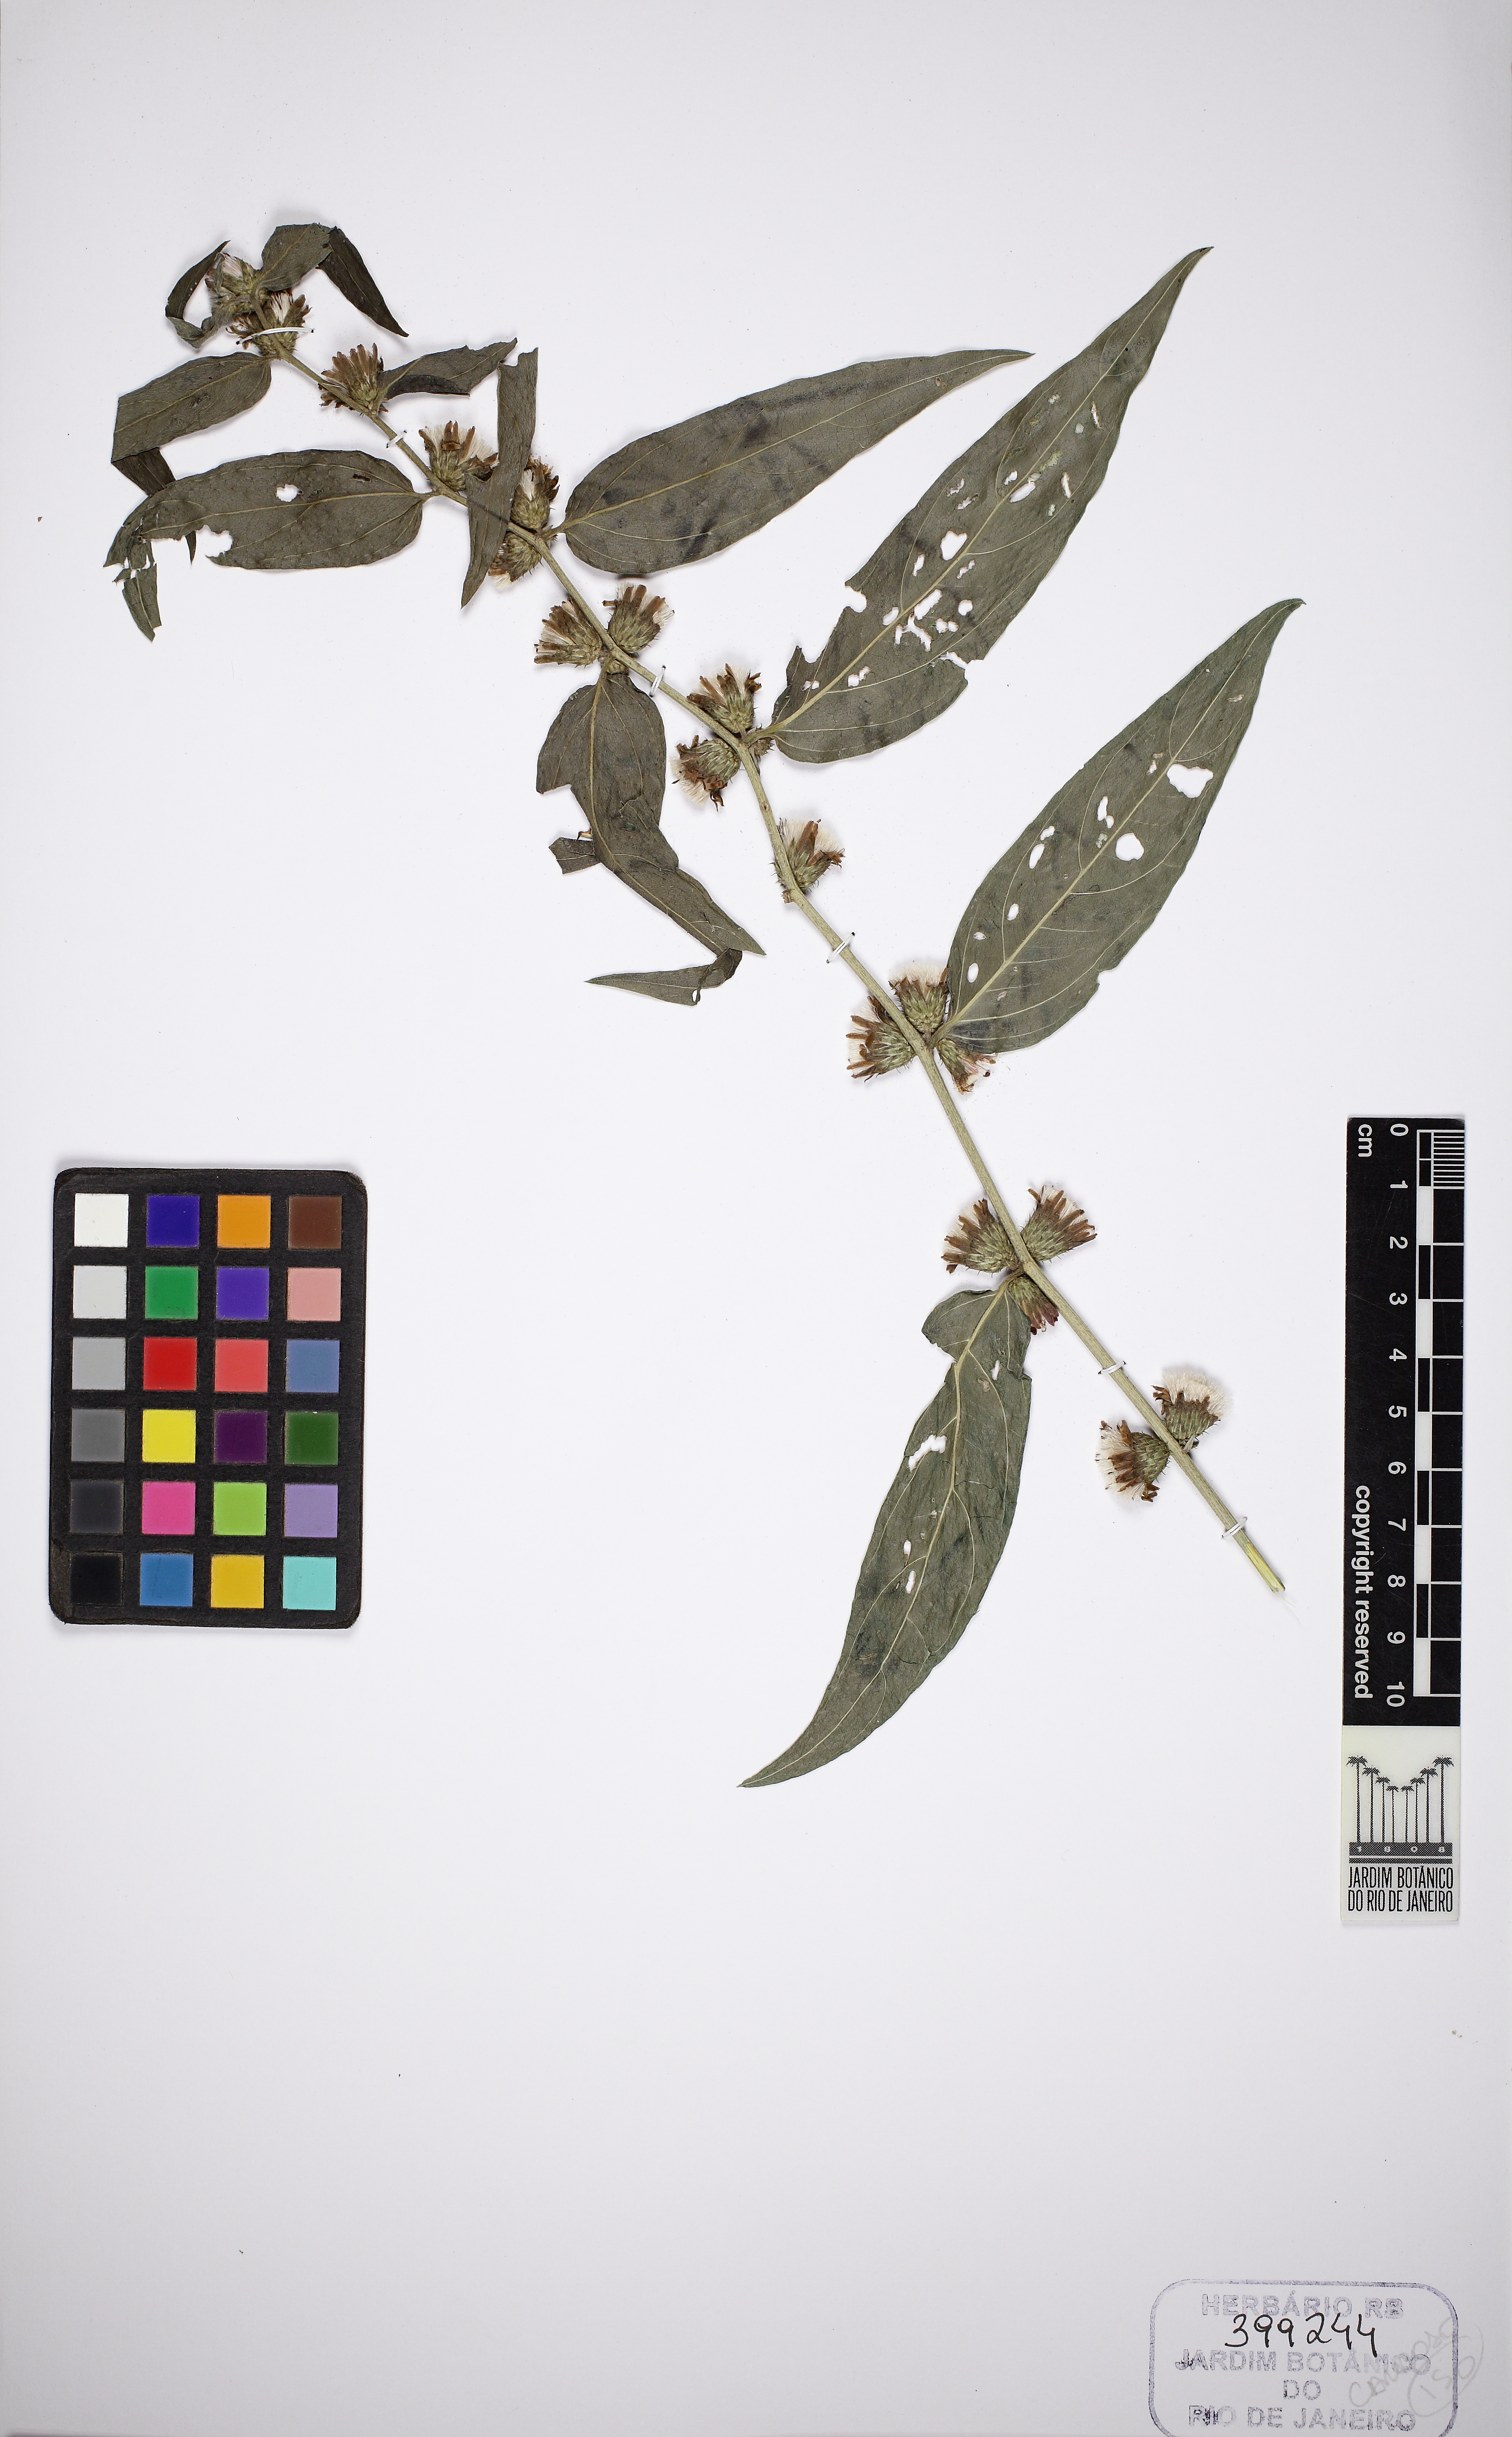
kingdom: Plantae
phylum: Tracheophyta
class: Magnoliopsida
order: Asterales
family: Asteraceae
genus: Lepidaploa
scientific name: Lepidaploa persicifolia
